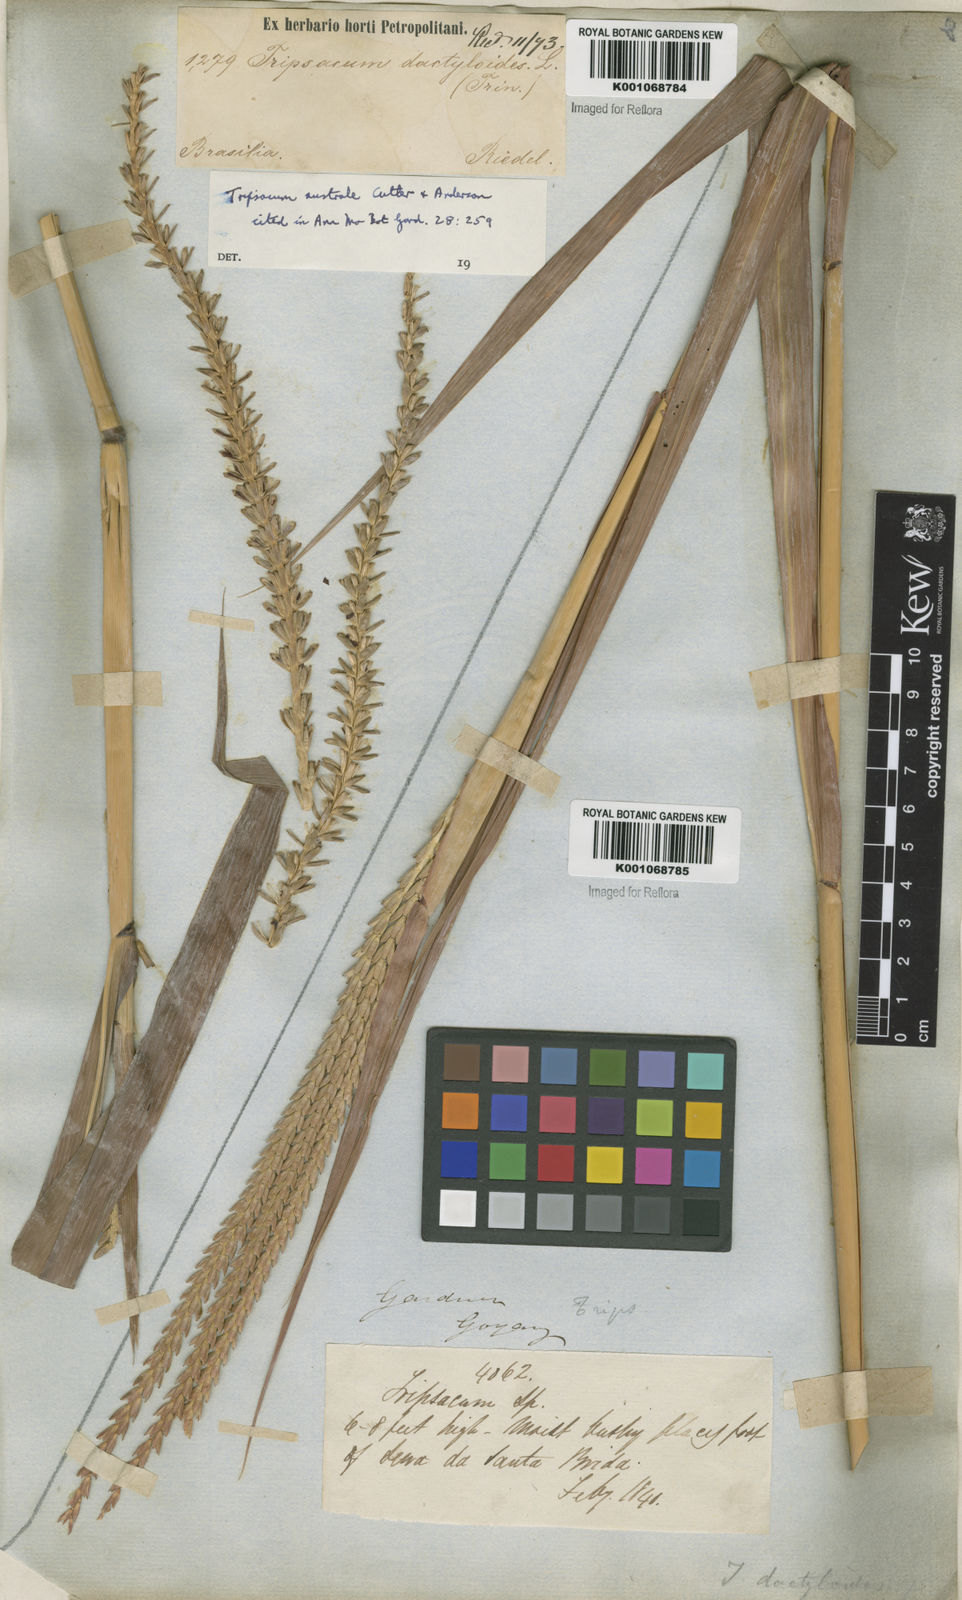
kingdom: Plantae
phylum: Tracheophyta
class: Liliopsida
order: Poales
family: Poaceae
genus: Tripsacum
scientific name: Tripsacum australe
